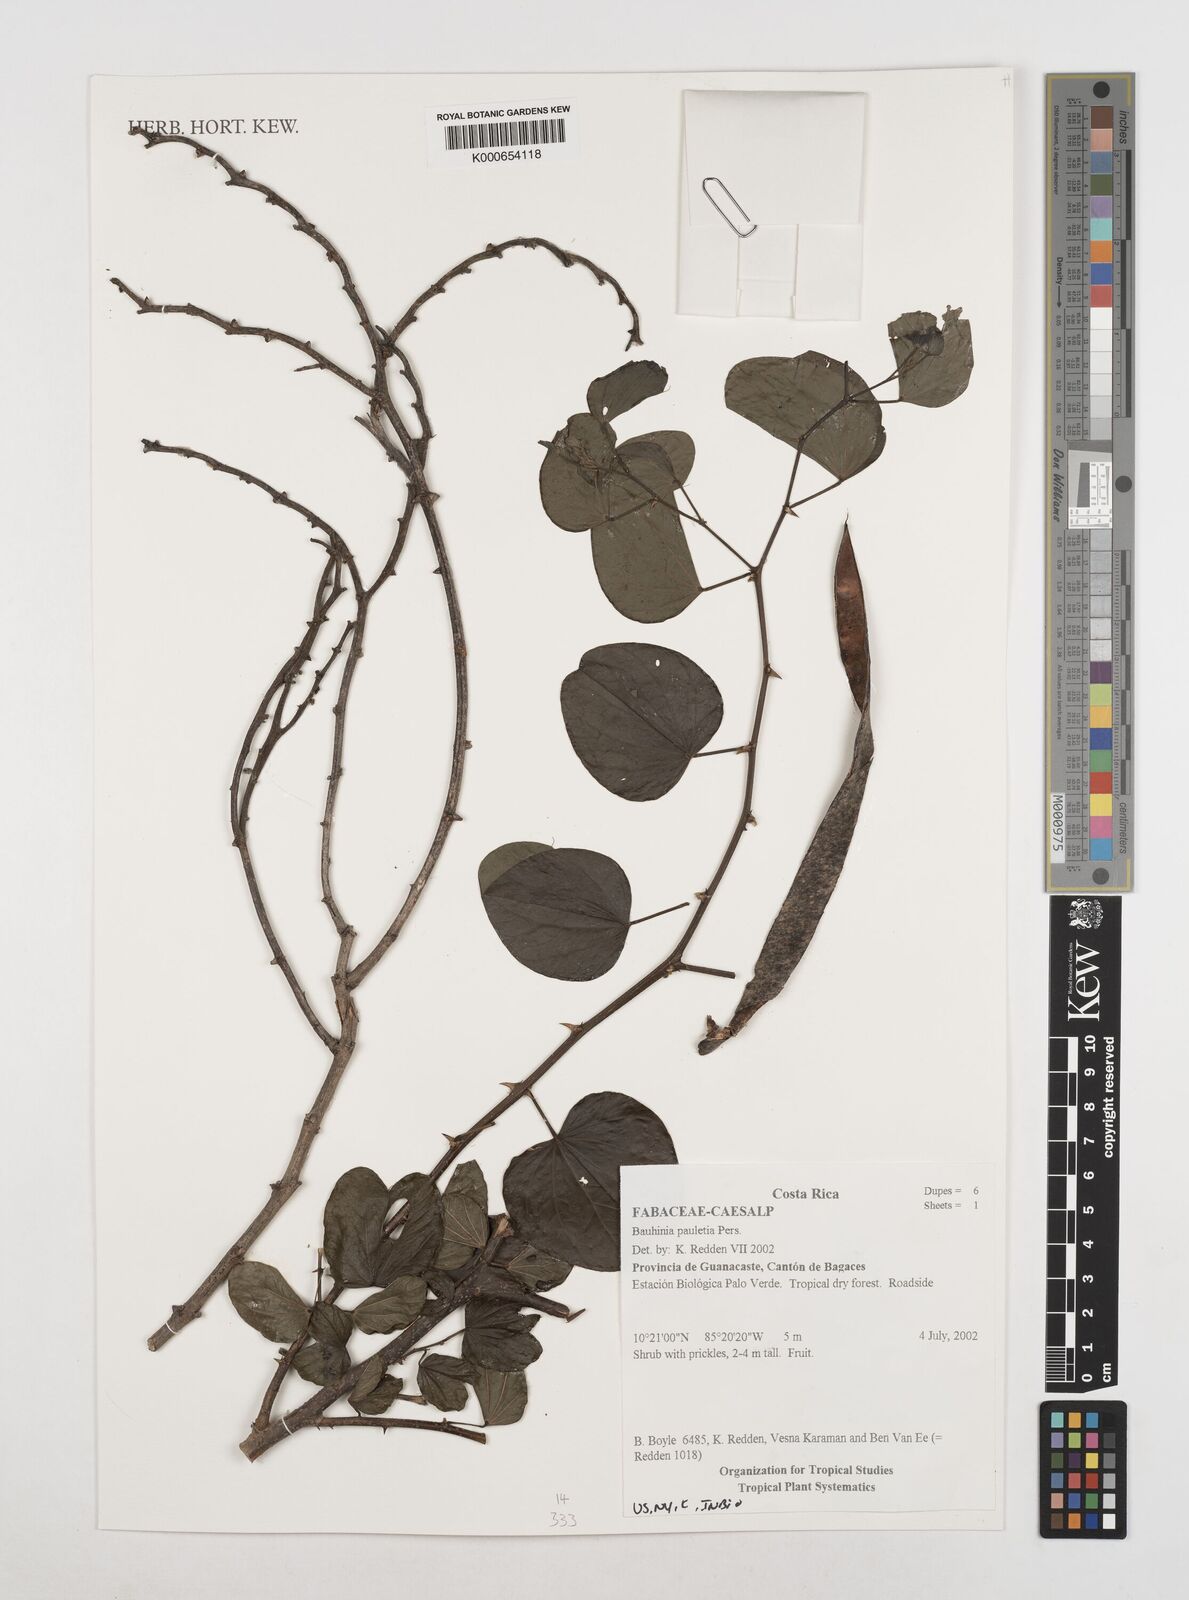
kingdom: Plantae
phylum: Tracheophyta
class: Magnoliopsida
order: Fabales
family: Fabaceae
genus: Bauhinia
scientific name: Bauhinia pauletia
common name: Railway-fence bauhinia
